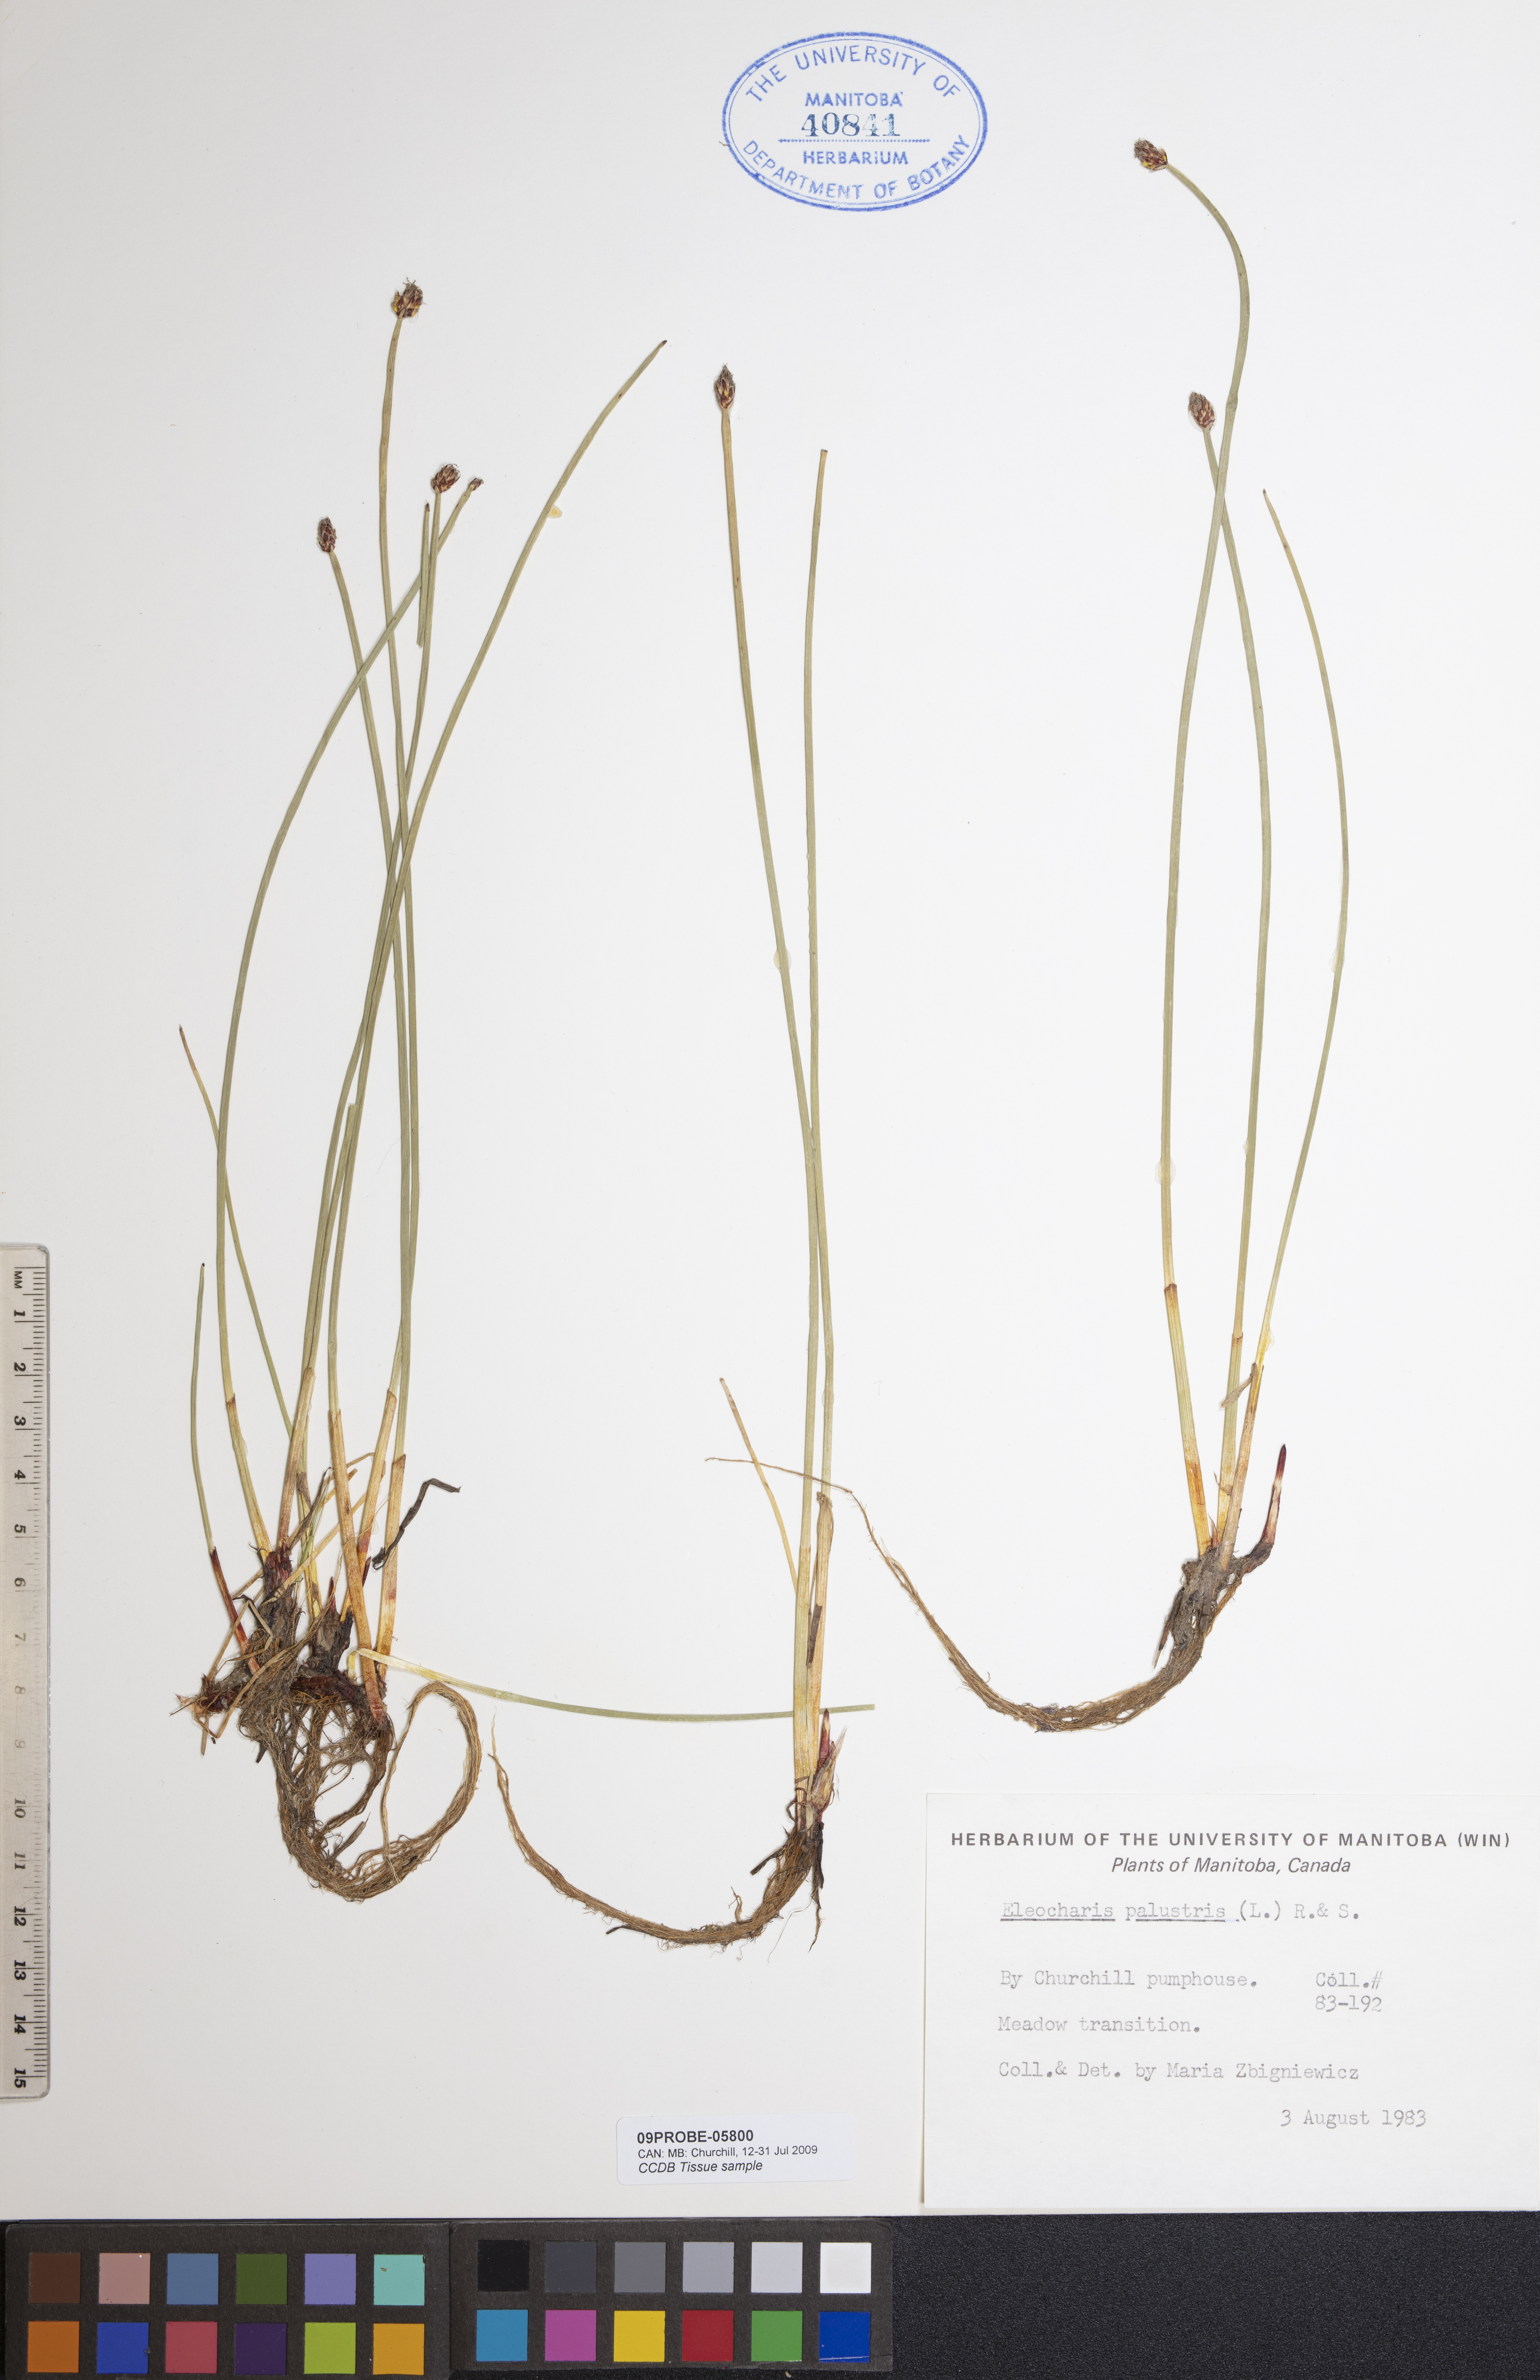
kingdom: Plantae
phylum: Tracheophyta
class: Liliopsida
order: Poales
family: Cyperaceae
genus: Eleocharis
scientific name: Eleocharis palustris
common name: Common spike-rush
